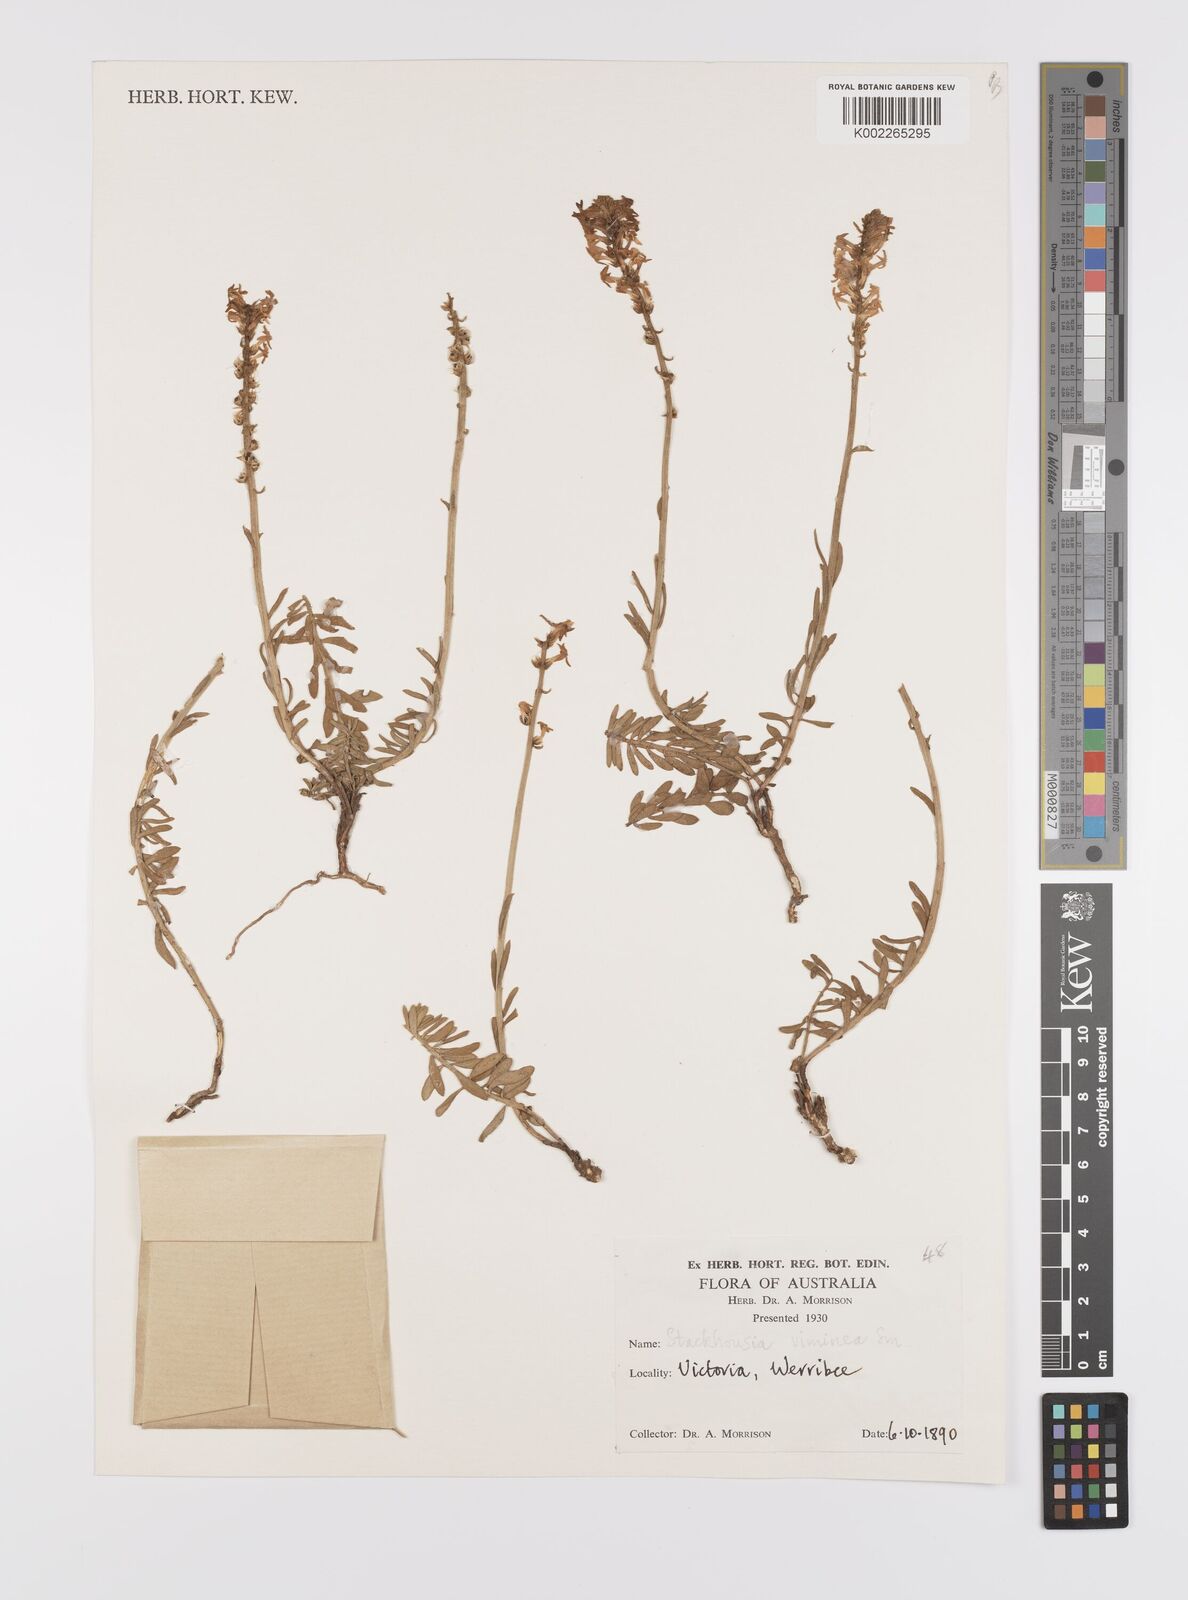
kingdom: Plantae
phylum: Tracheophyta
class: Magnoliopsida
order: Celastrales
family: Celastraceae
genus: Stackhousia
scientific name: Stackhousia viminea
